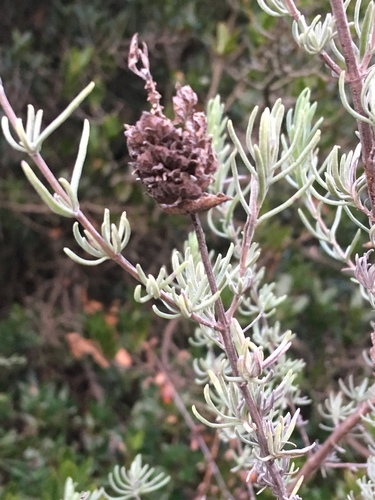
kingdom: Plantae
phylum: Tracheophyta
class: Magnoliopsida
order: Lamiales
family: Lamiaceae
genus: Lavandula
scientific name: Lavandula stoechas
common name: French lavender
